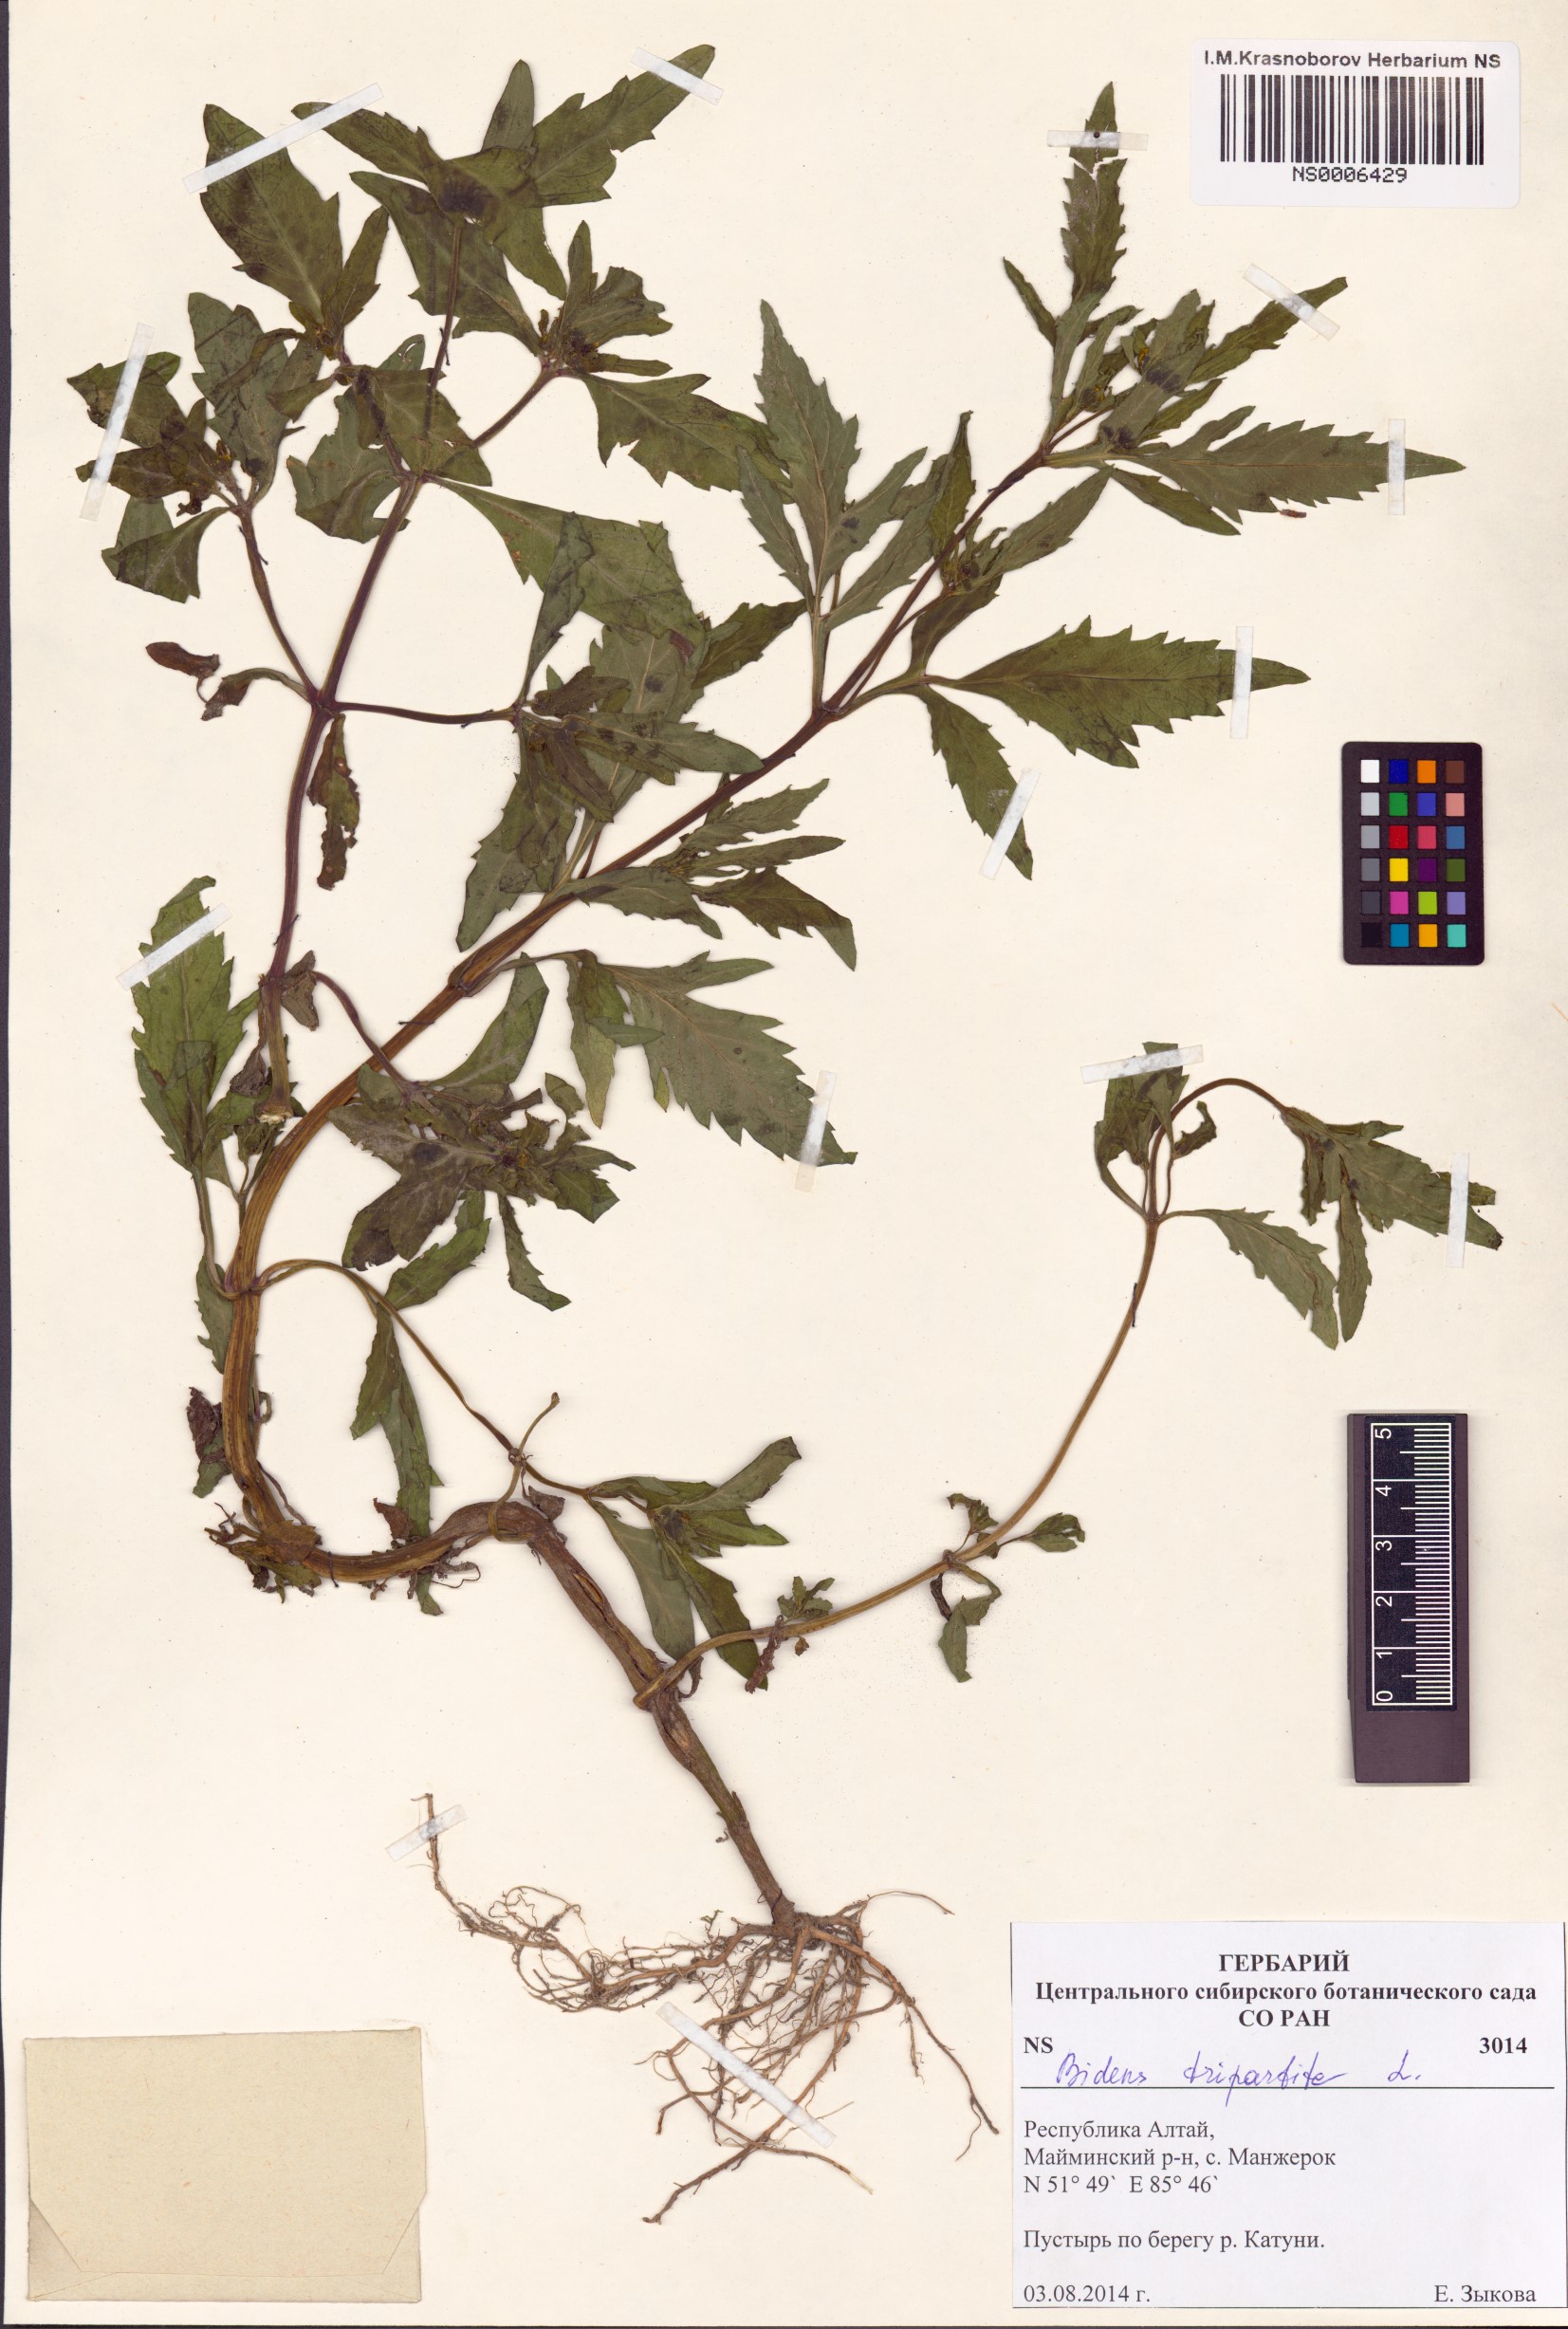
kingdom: Plantae
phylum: Tracheophyta
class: Magnoliopsida
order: Asterales
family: Asteraceae
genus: Bidens
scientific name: Bidens tripartita
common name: Trifid bur-marigold
